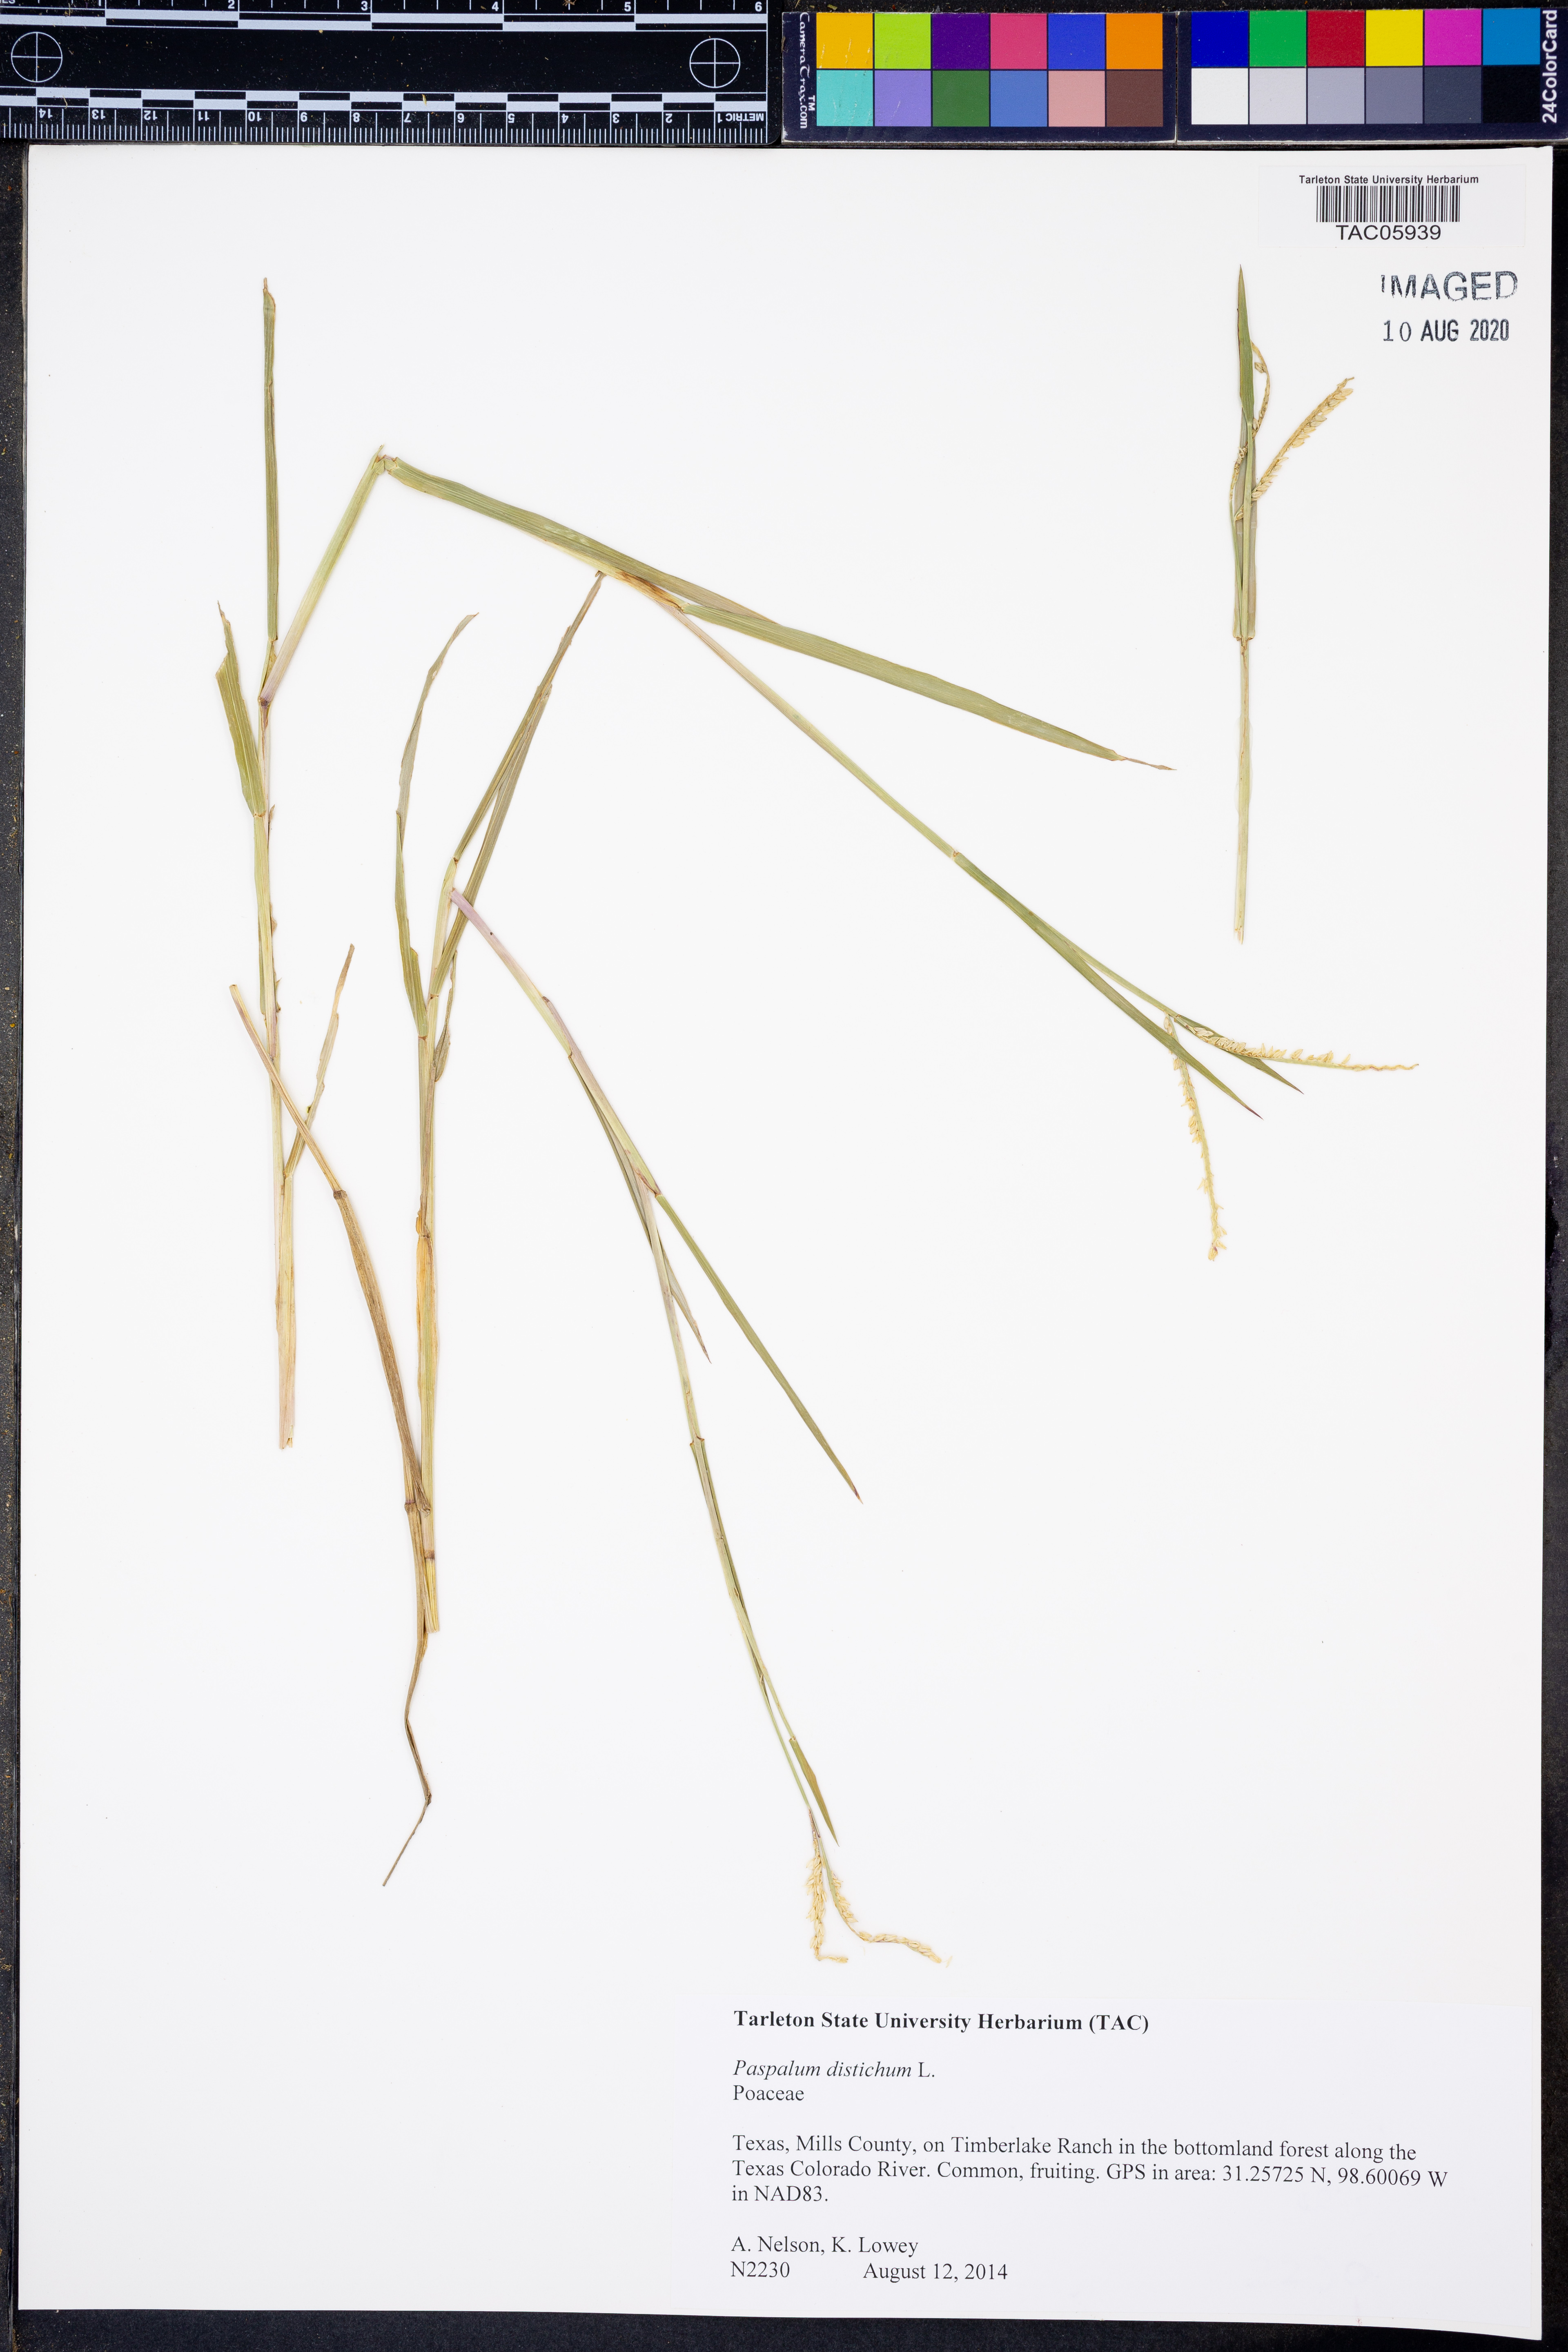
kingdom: Plantae
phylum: Tracheophyta
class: Liliopsida
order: Poales
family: Poaceae
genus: Paspalum
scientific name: Paspalum distichum
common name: Knotgrass
